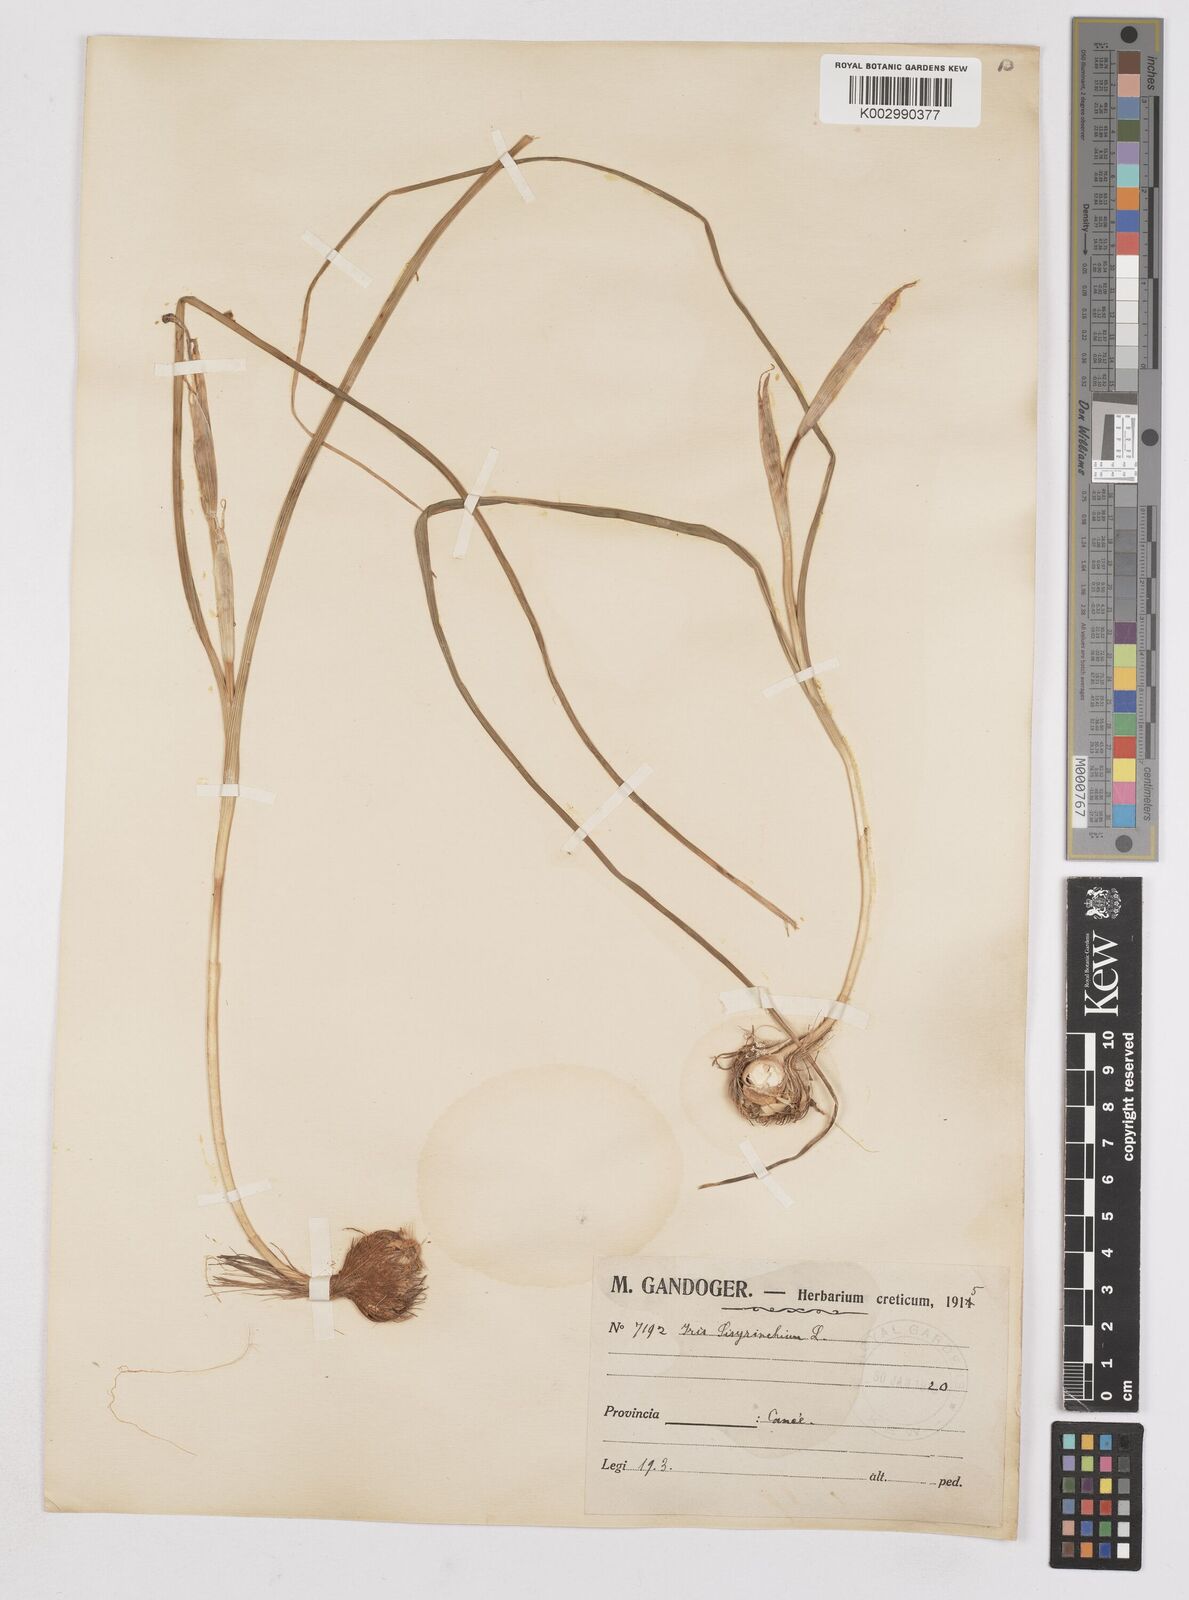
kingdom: Plantae
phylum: Tracheophyta
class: Liliopsida
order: Asparagales
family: Iridaceae
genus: Moraea
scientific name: Moraea sisyrinchium
